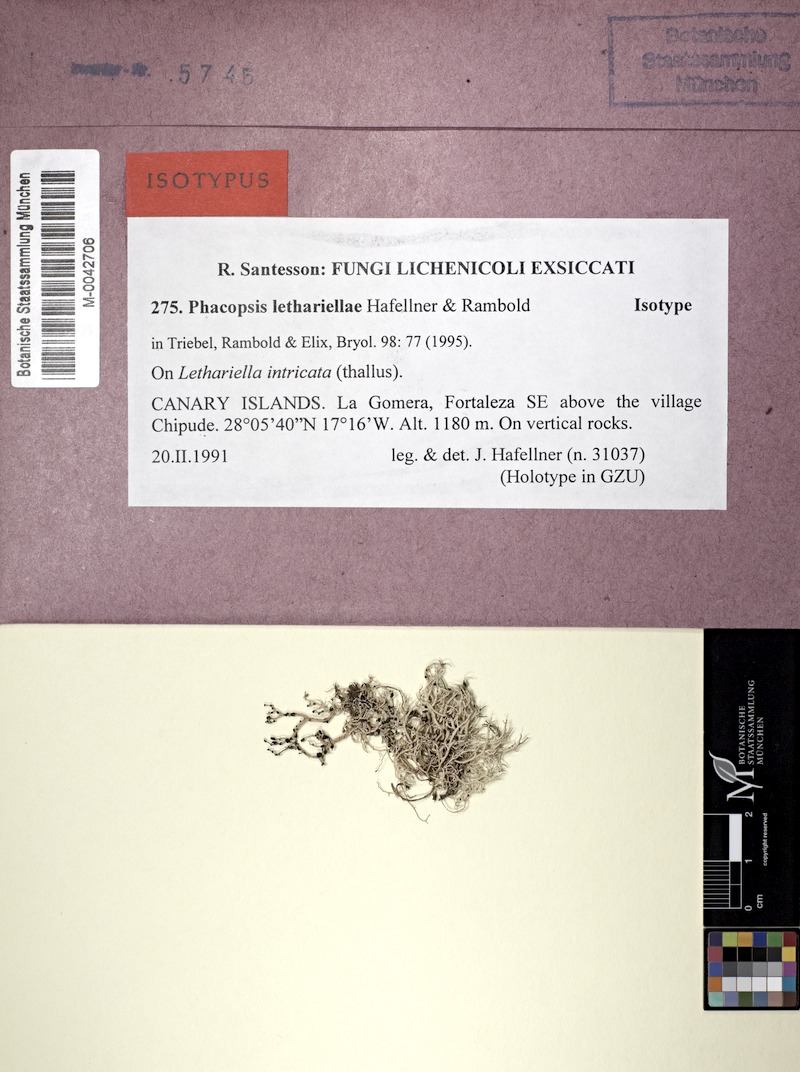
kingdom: Fungi
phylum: Ascomycota
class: Lecanoromycetes
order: Lecanorales
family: Parmeliaceae
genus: Lethariella
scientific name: Lethariella intricata
